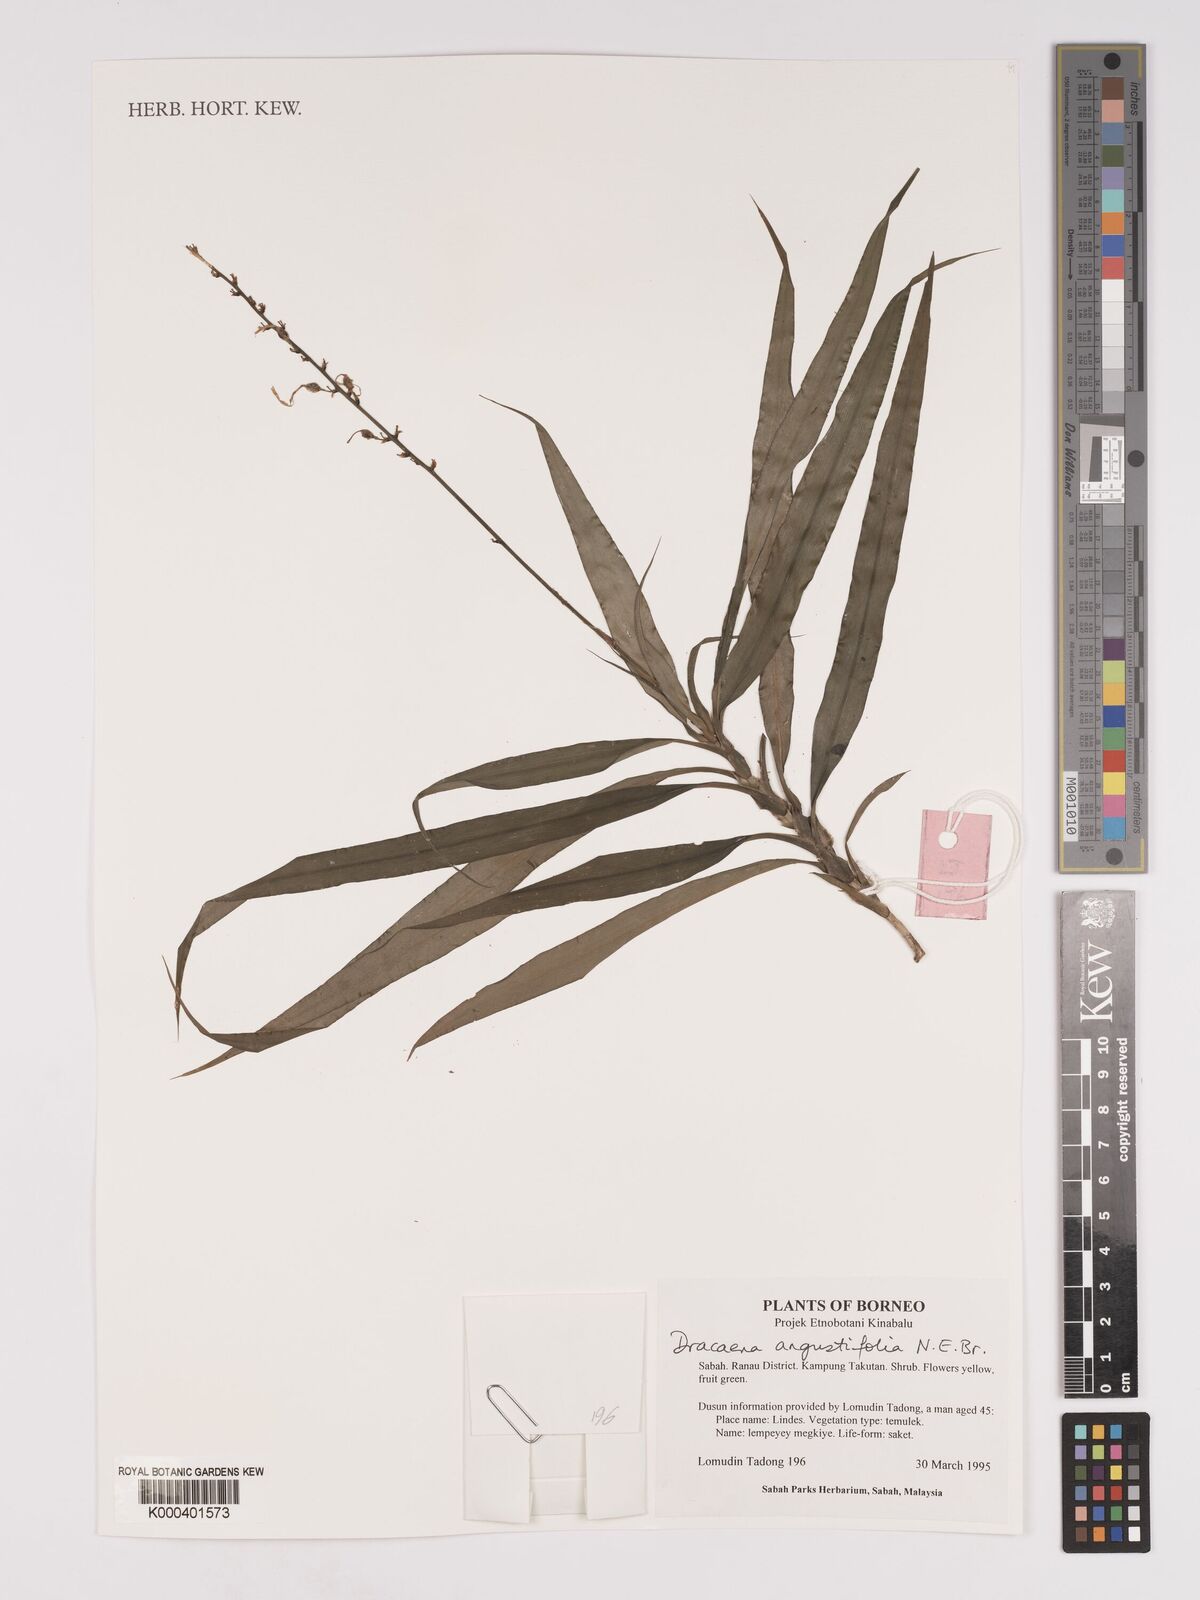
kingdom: Plantae
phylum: Tracheophyta
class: Liliopsida
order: Asparagales
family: Asparagaceae
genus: Dracaena
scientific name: Dracaena angustifolia
